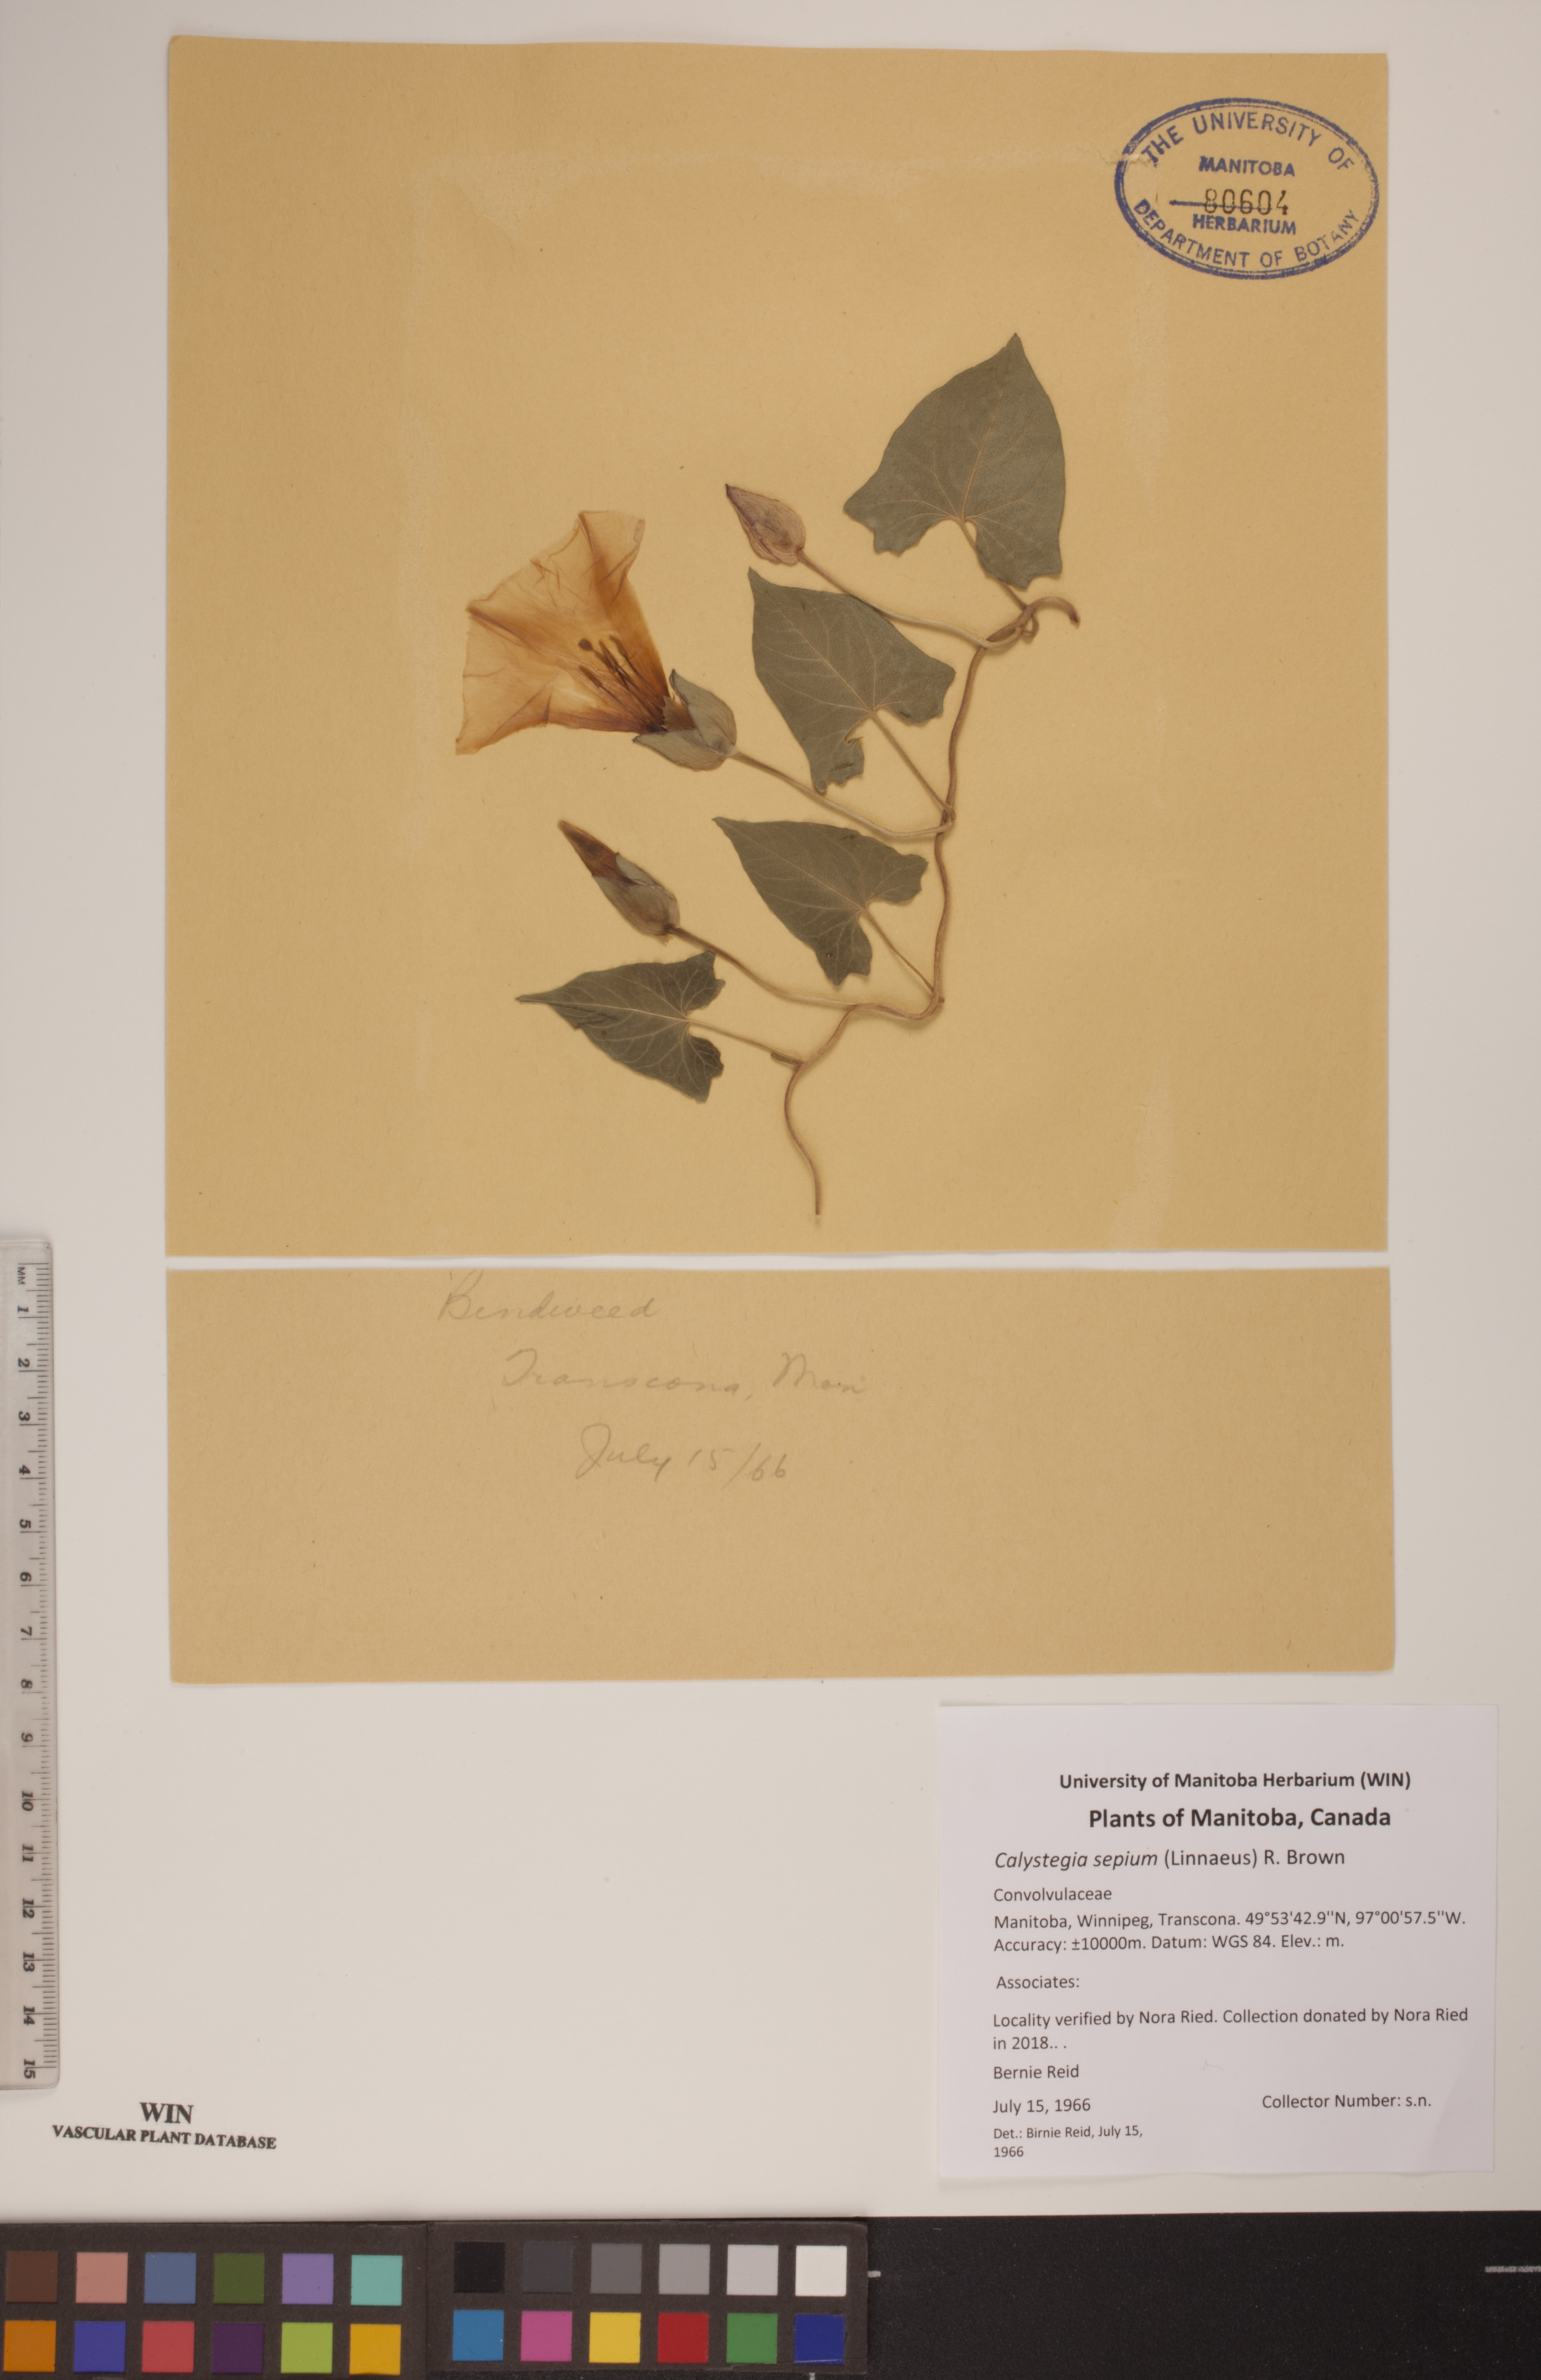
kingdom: Plantae
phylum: Tracheophyta
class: Magnoliopsida
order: Solanales
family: Convolvulaceae
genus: Calystegia
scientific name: Calystegia sepium
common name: Hedge bindweed
